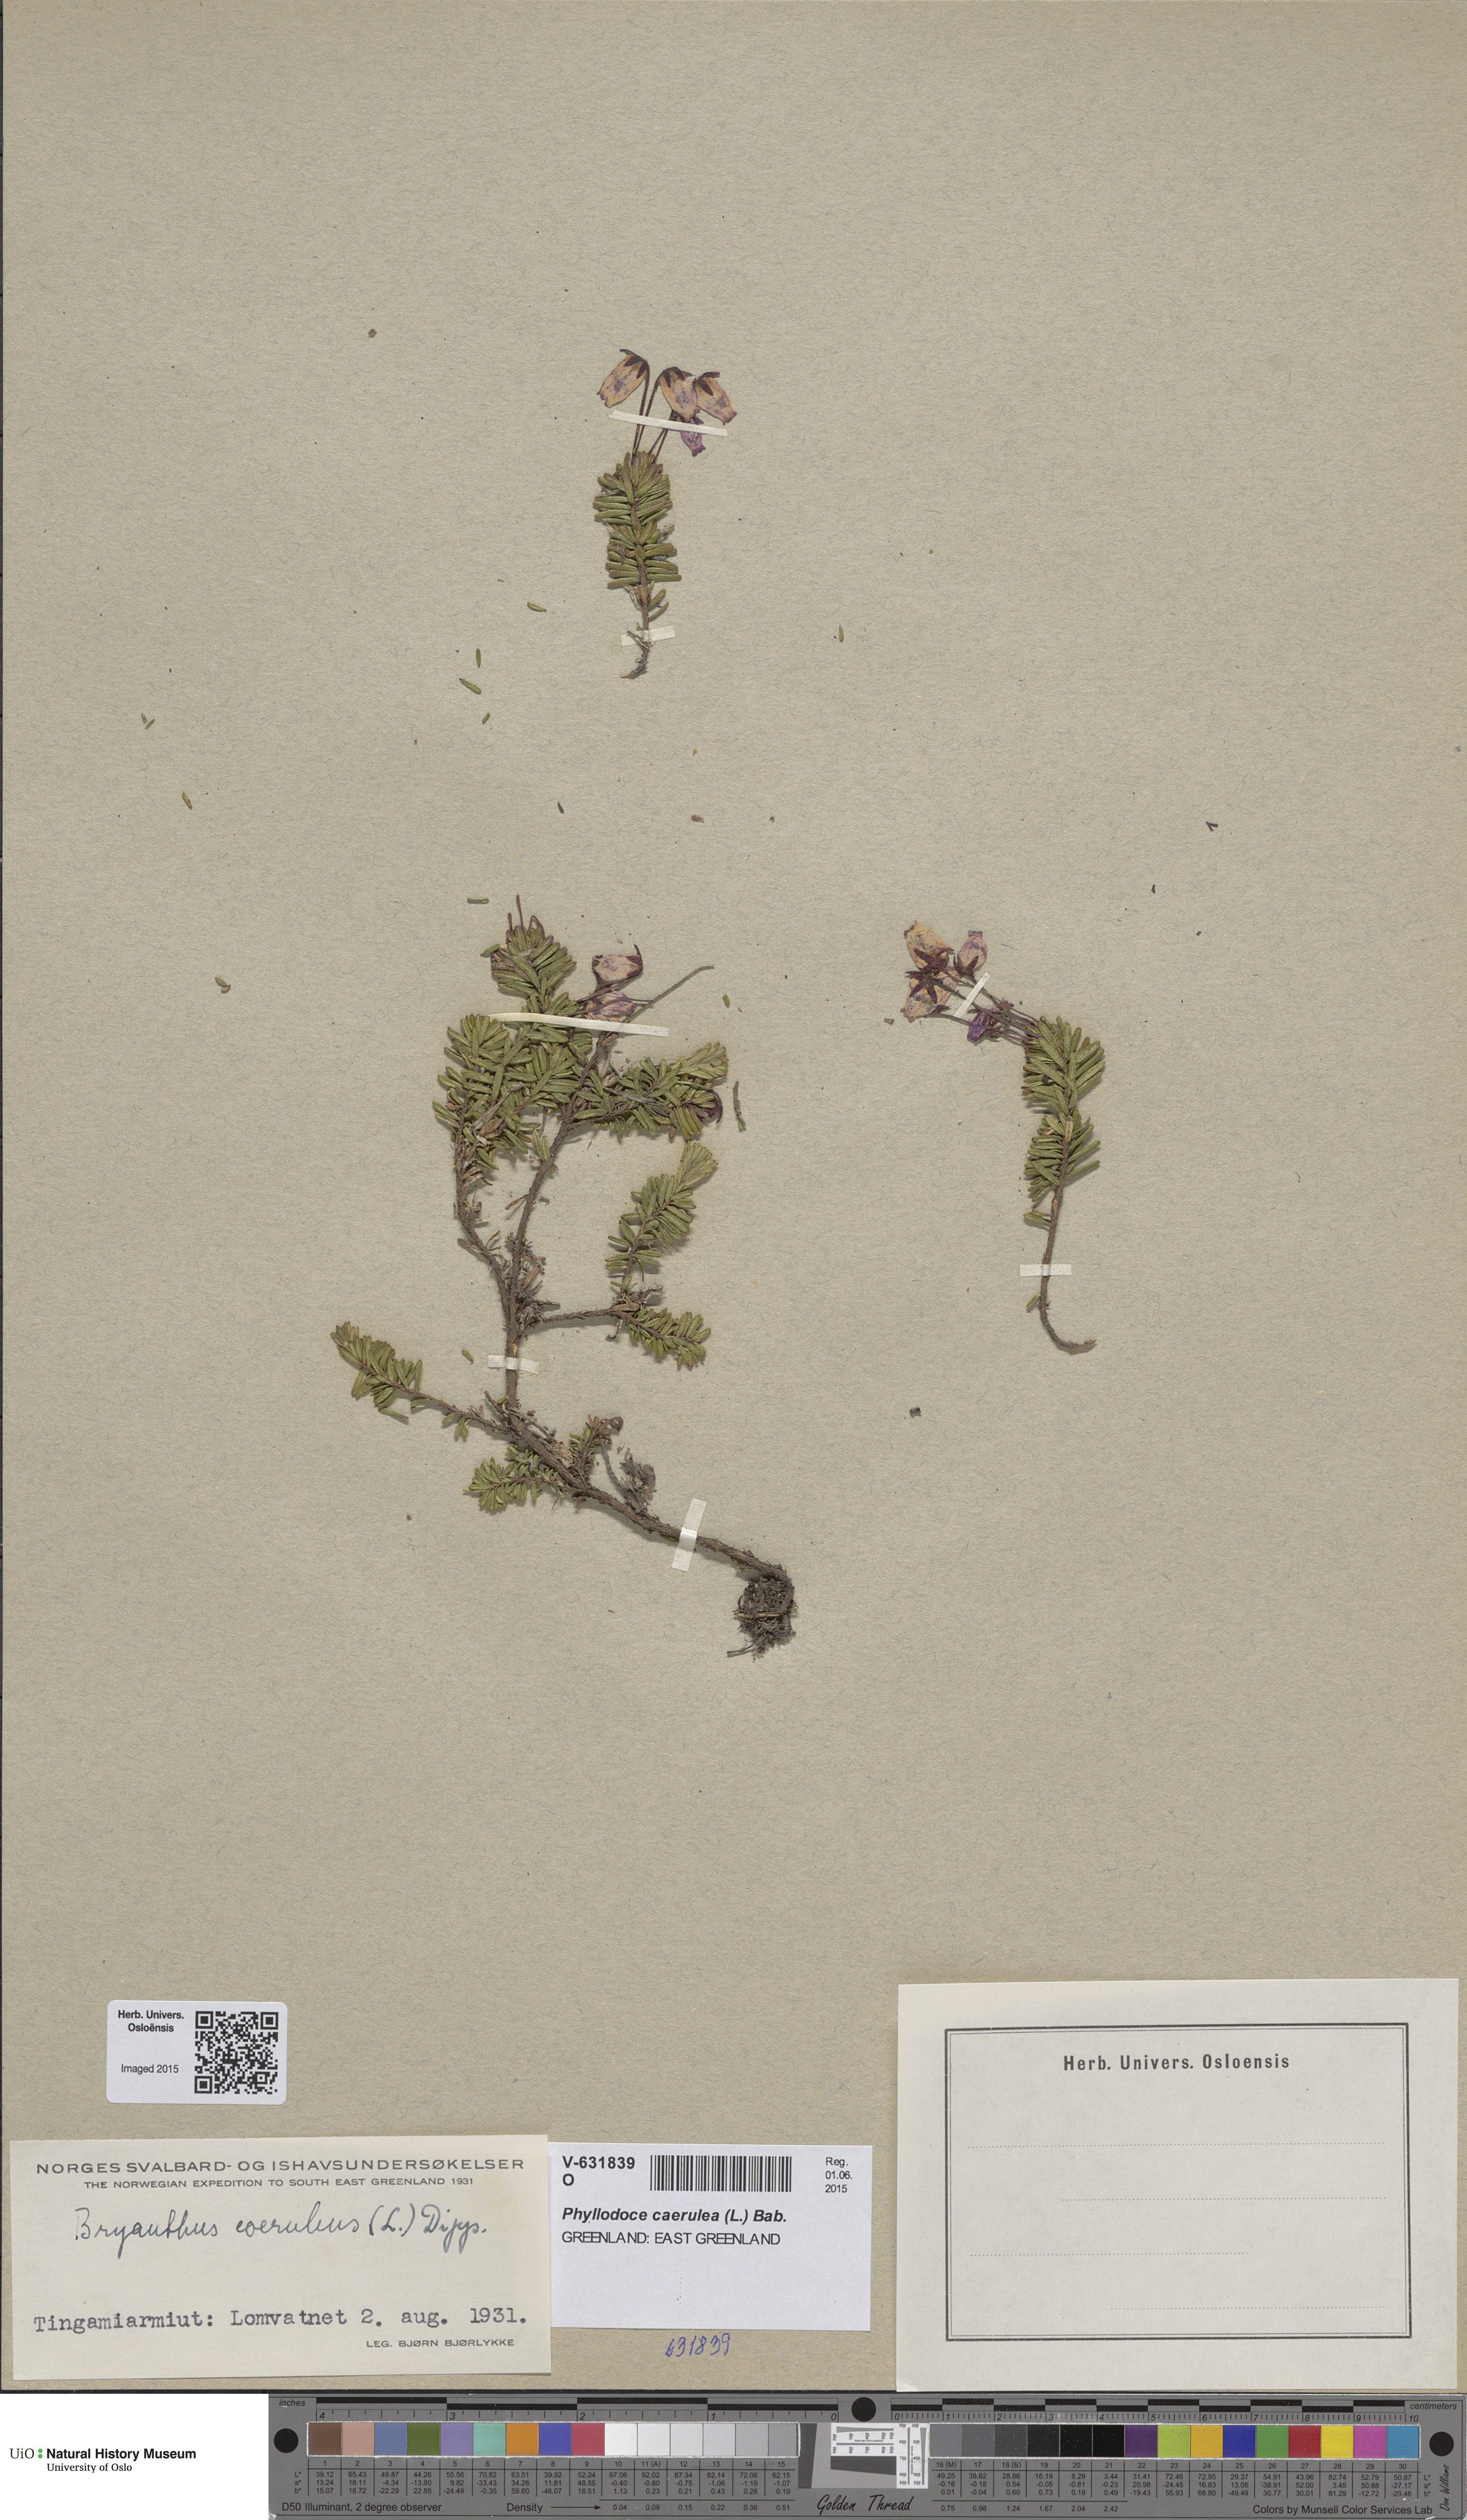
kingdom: Plantae
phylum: Tracheophyta
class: Magnoliopsida
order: Ericales
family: Ericaceae
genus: Phyllodoce
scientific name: Phyllodoce caerulea
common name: Blue heath
